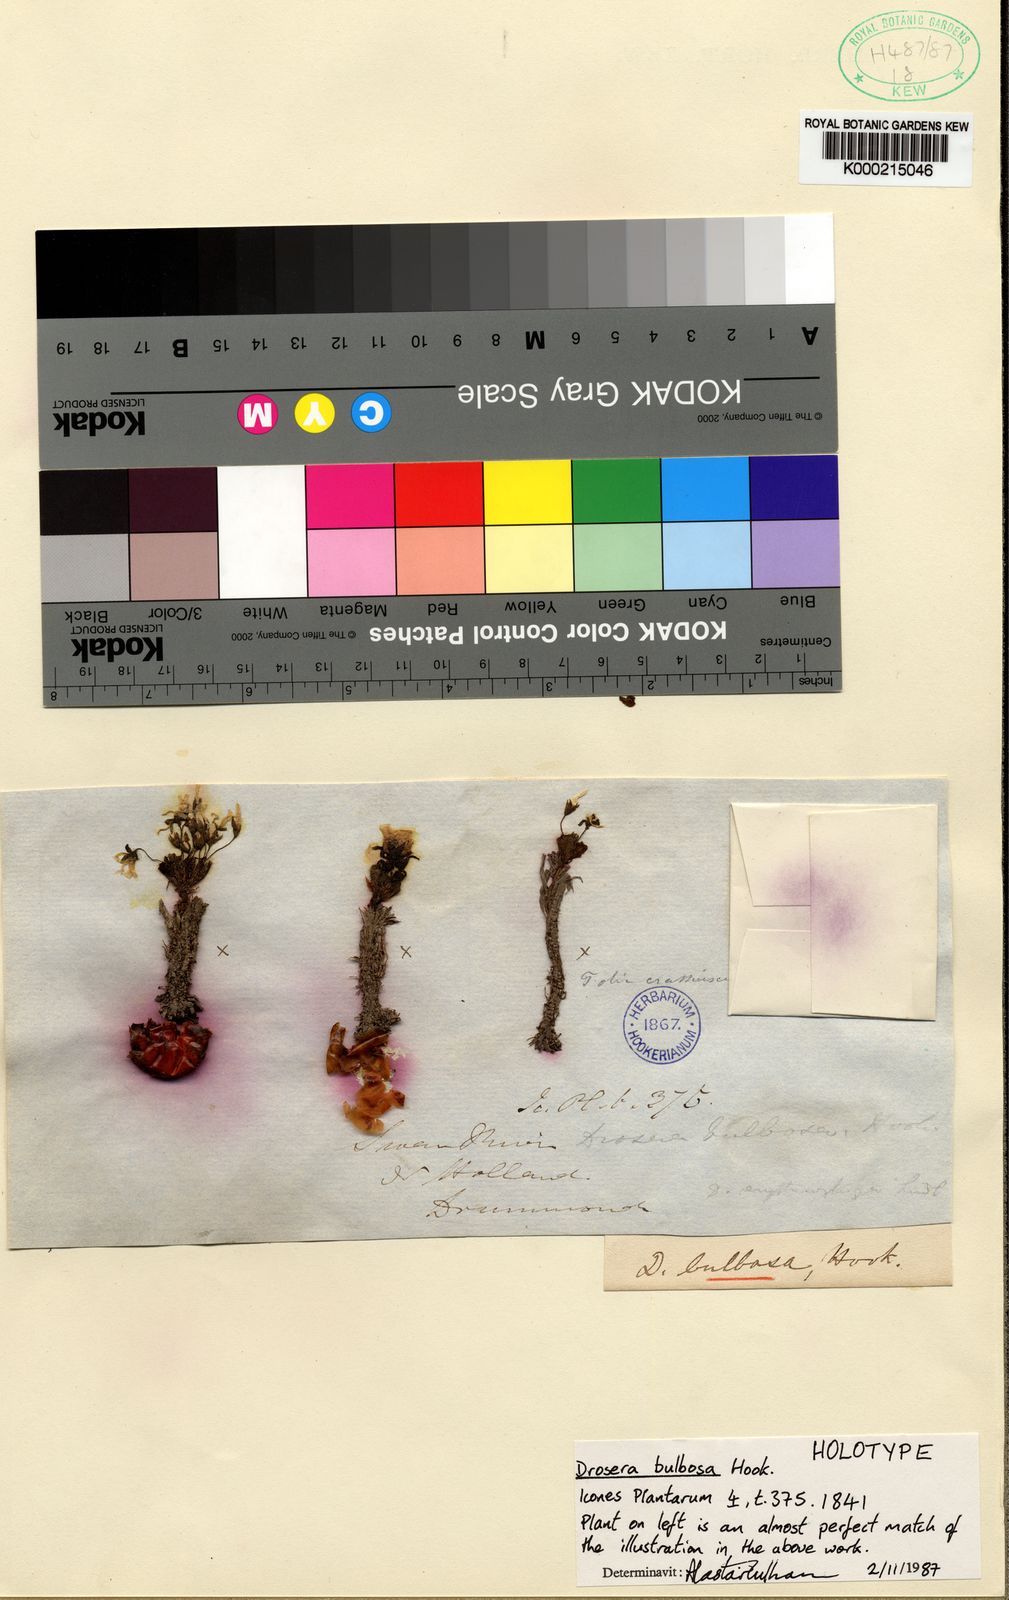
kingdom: Plantae
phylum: Tracheophyta
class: Magnoliopsida
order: Caryophyllales
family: Droseraceae
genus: Drosera
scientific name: Drosera bulbosa
